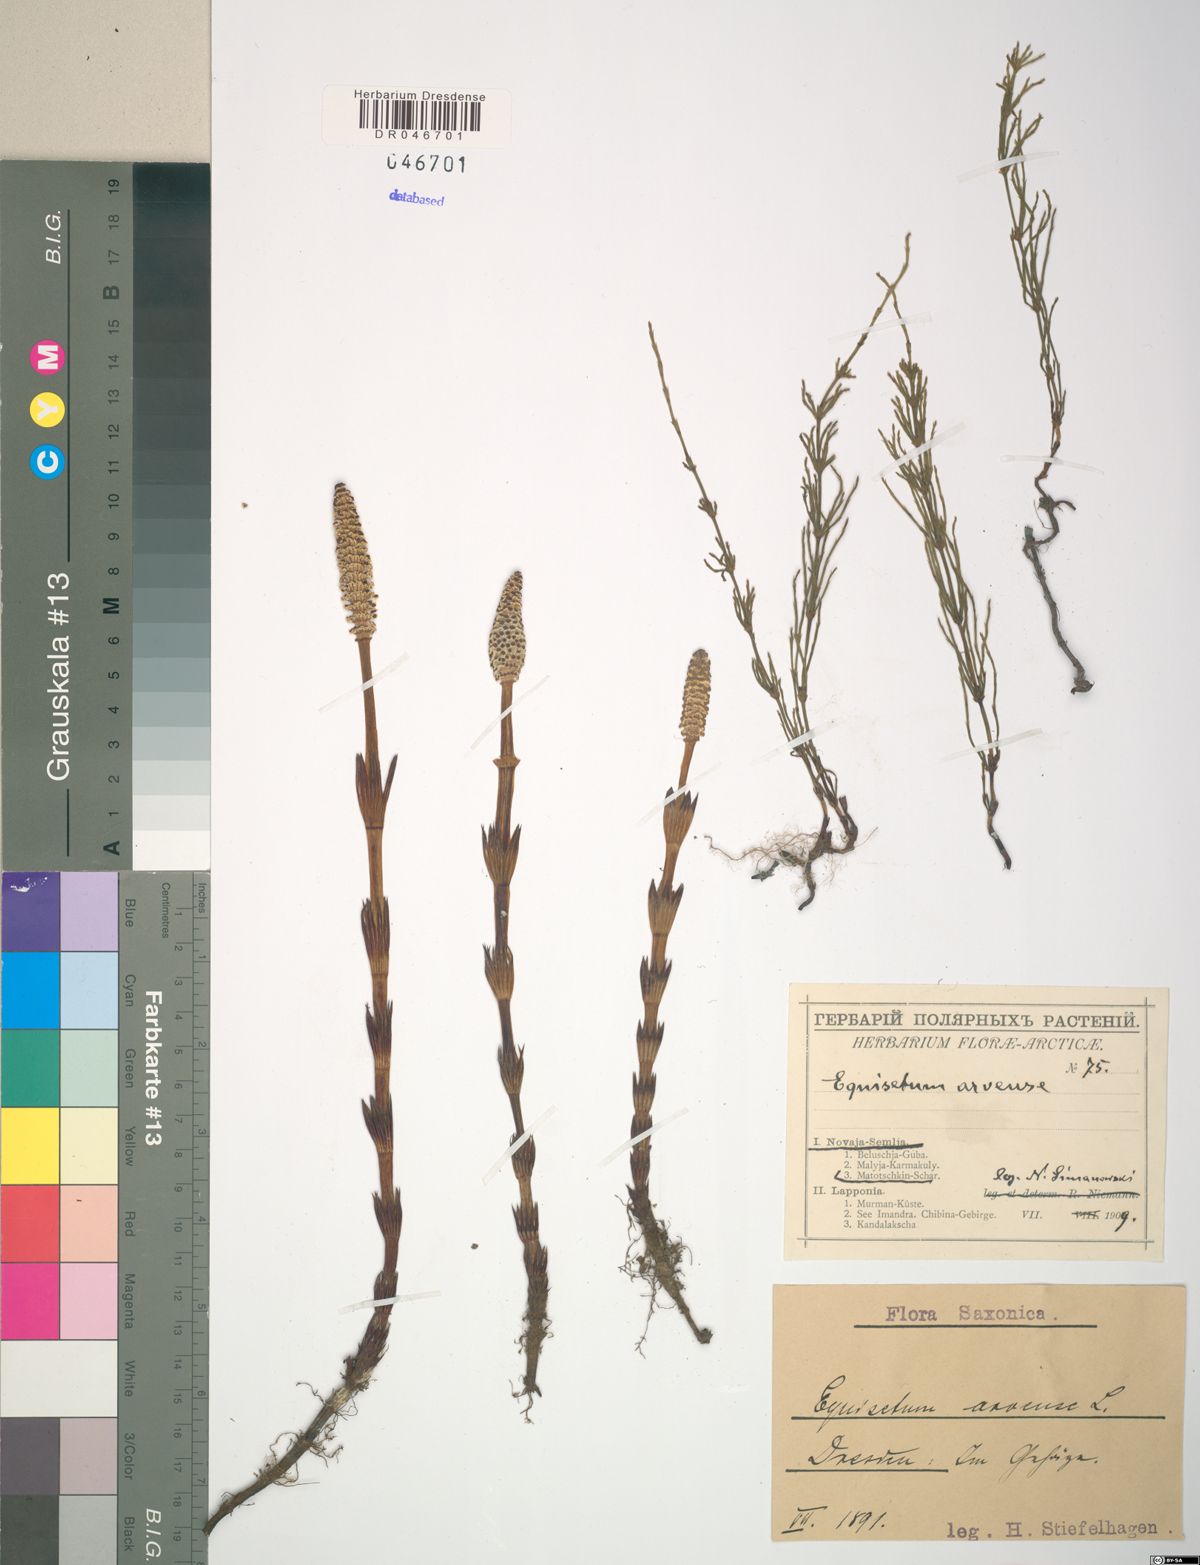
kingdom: Plantae
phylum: Tracheophyta
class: Polypodiopsida
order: Equisetales
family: Equisetaceae
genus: Equisetum
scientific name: Equisetum arvense
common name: Field horsetail
